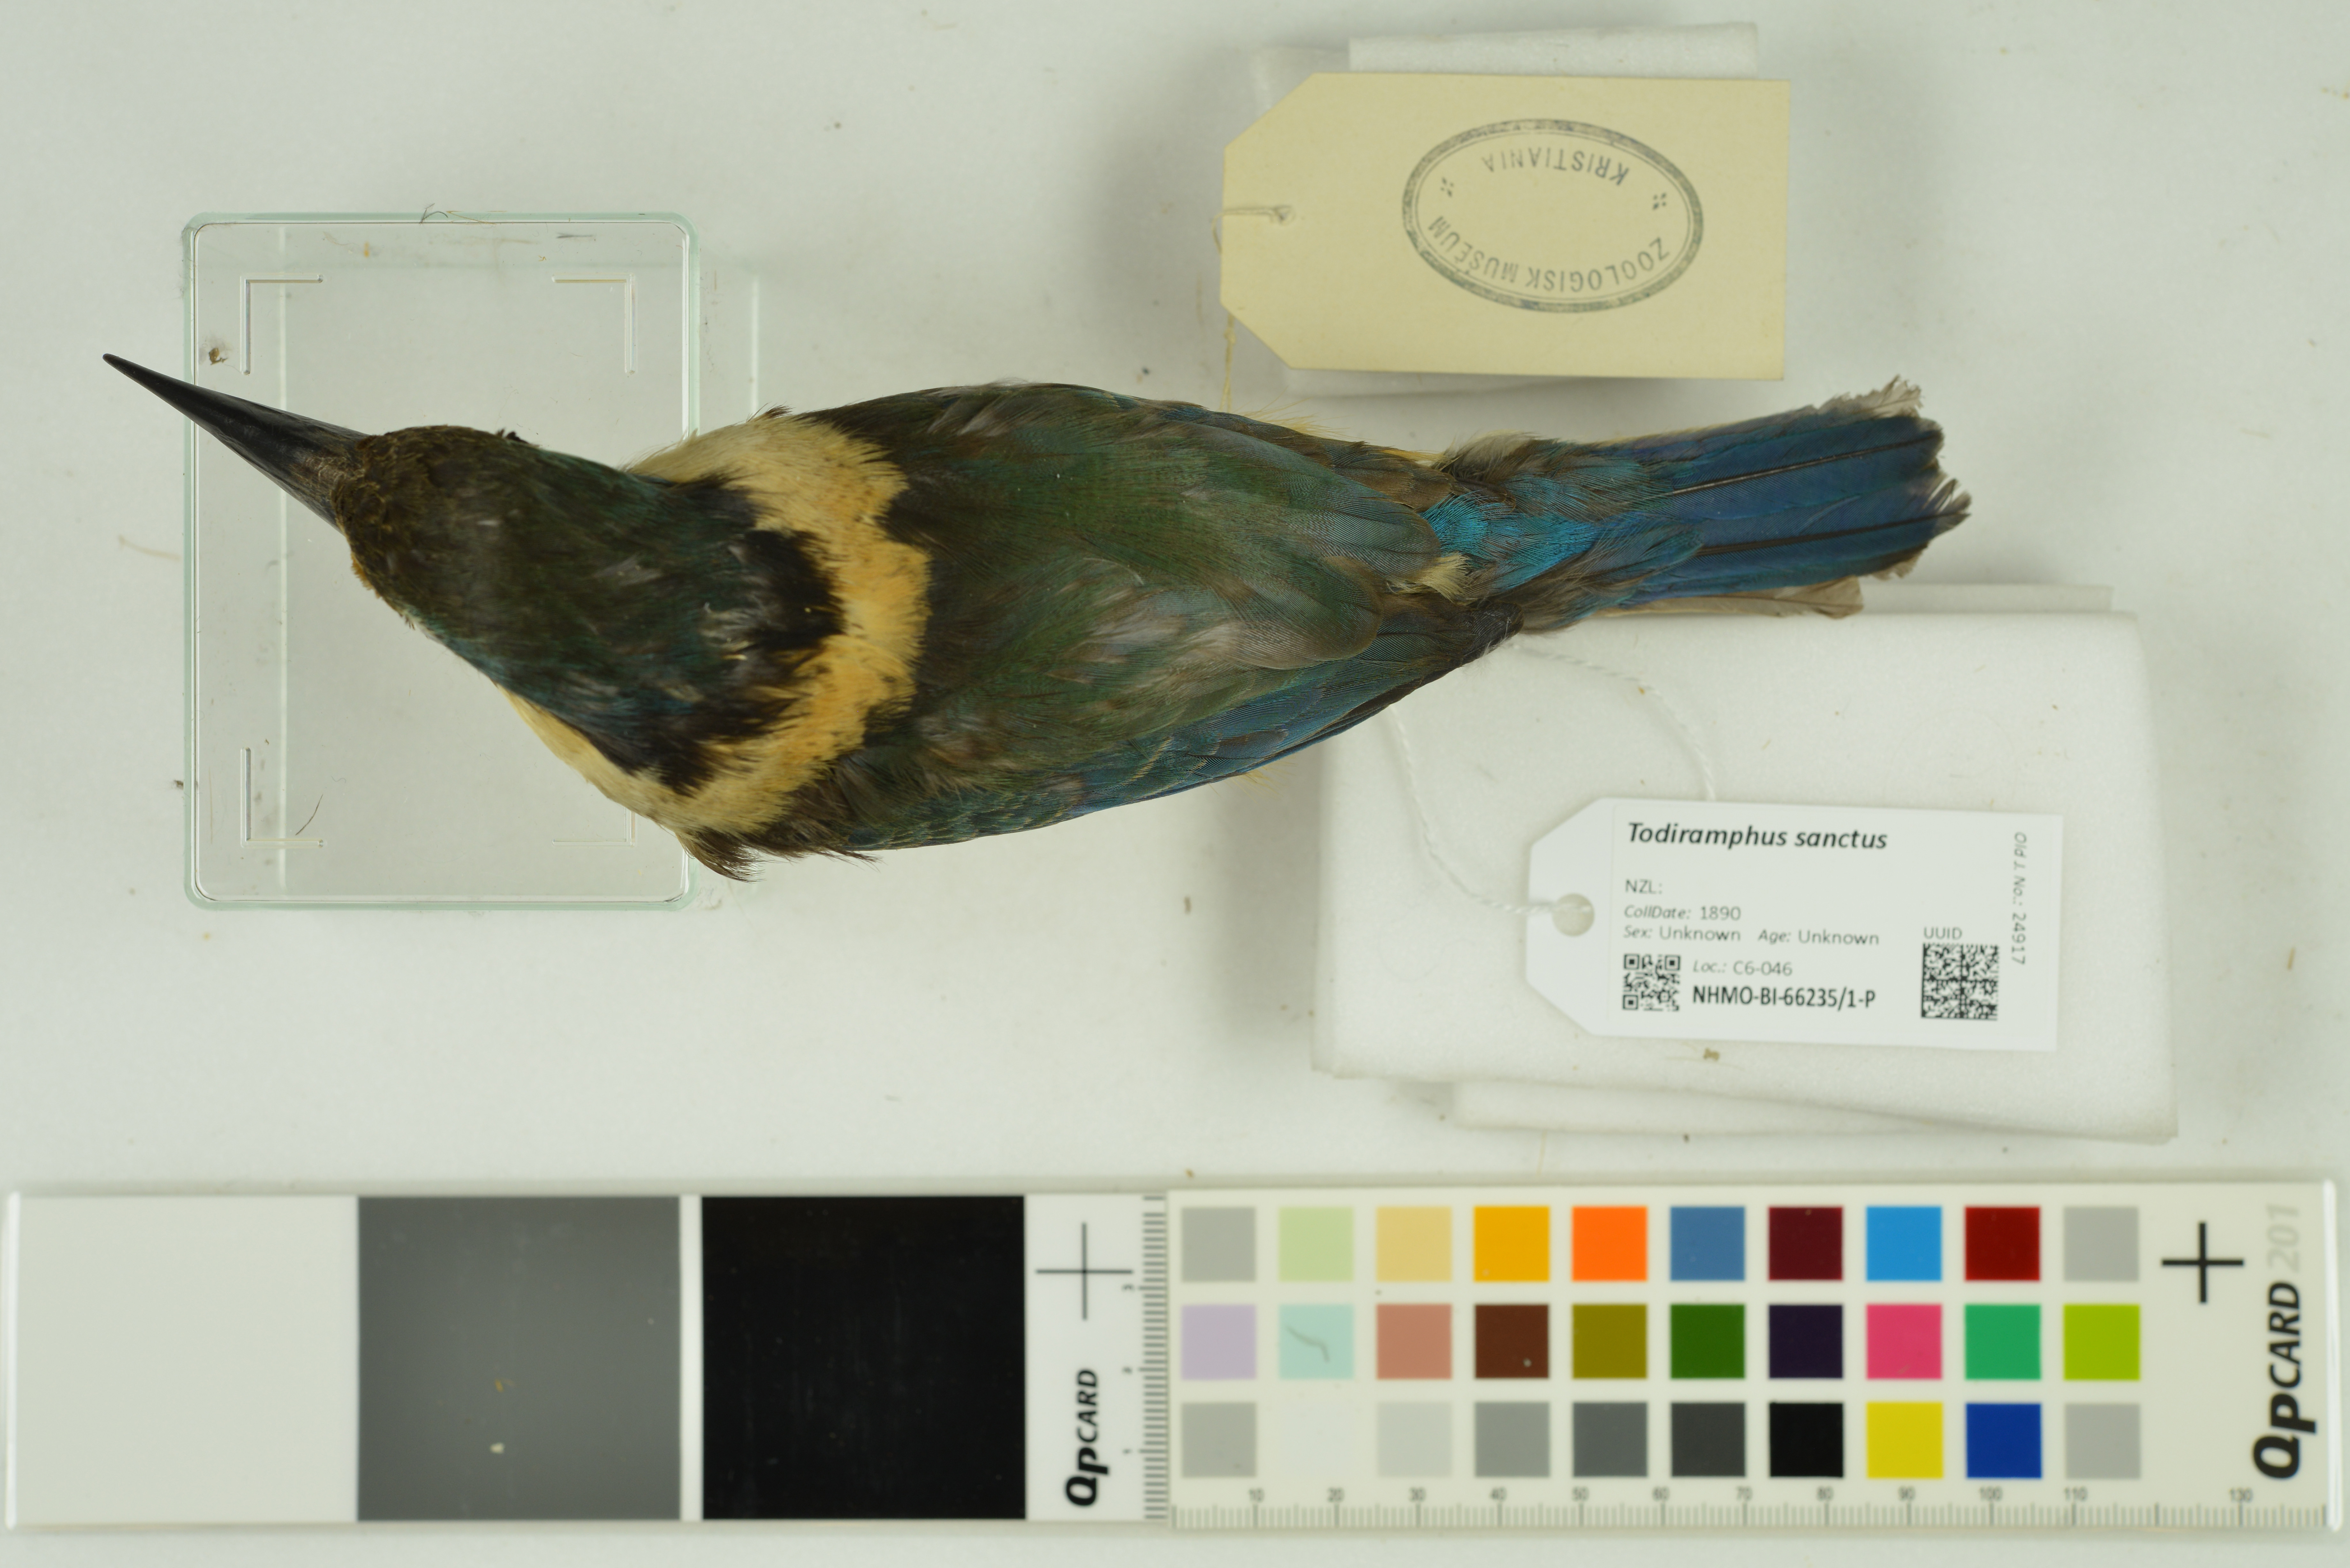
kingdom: Animalia
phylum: Chordata
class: Aves
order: Coraciiformes
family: Alcedinidae
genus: Todiramphus
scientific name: Todiramphus sanctus
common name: Sacred kingfisher
